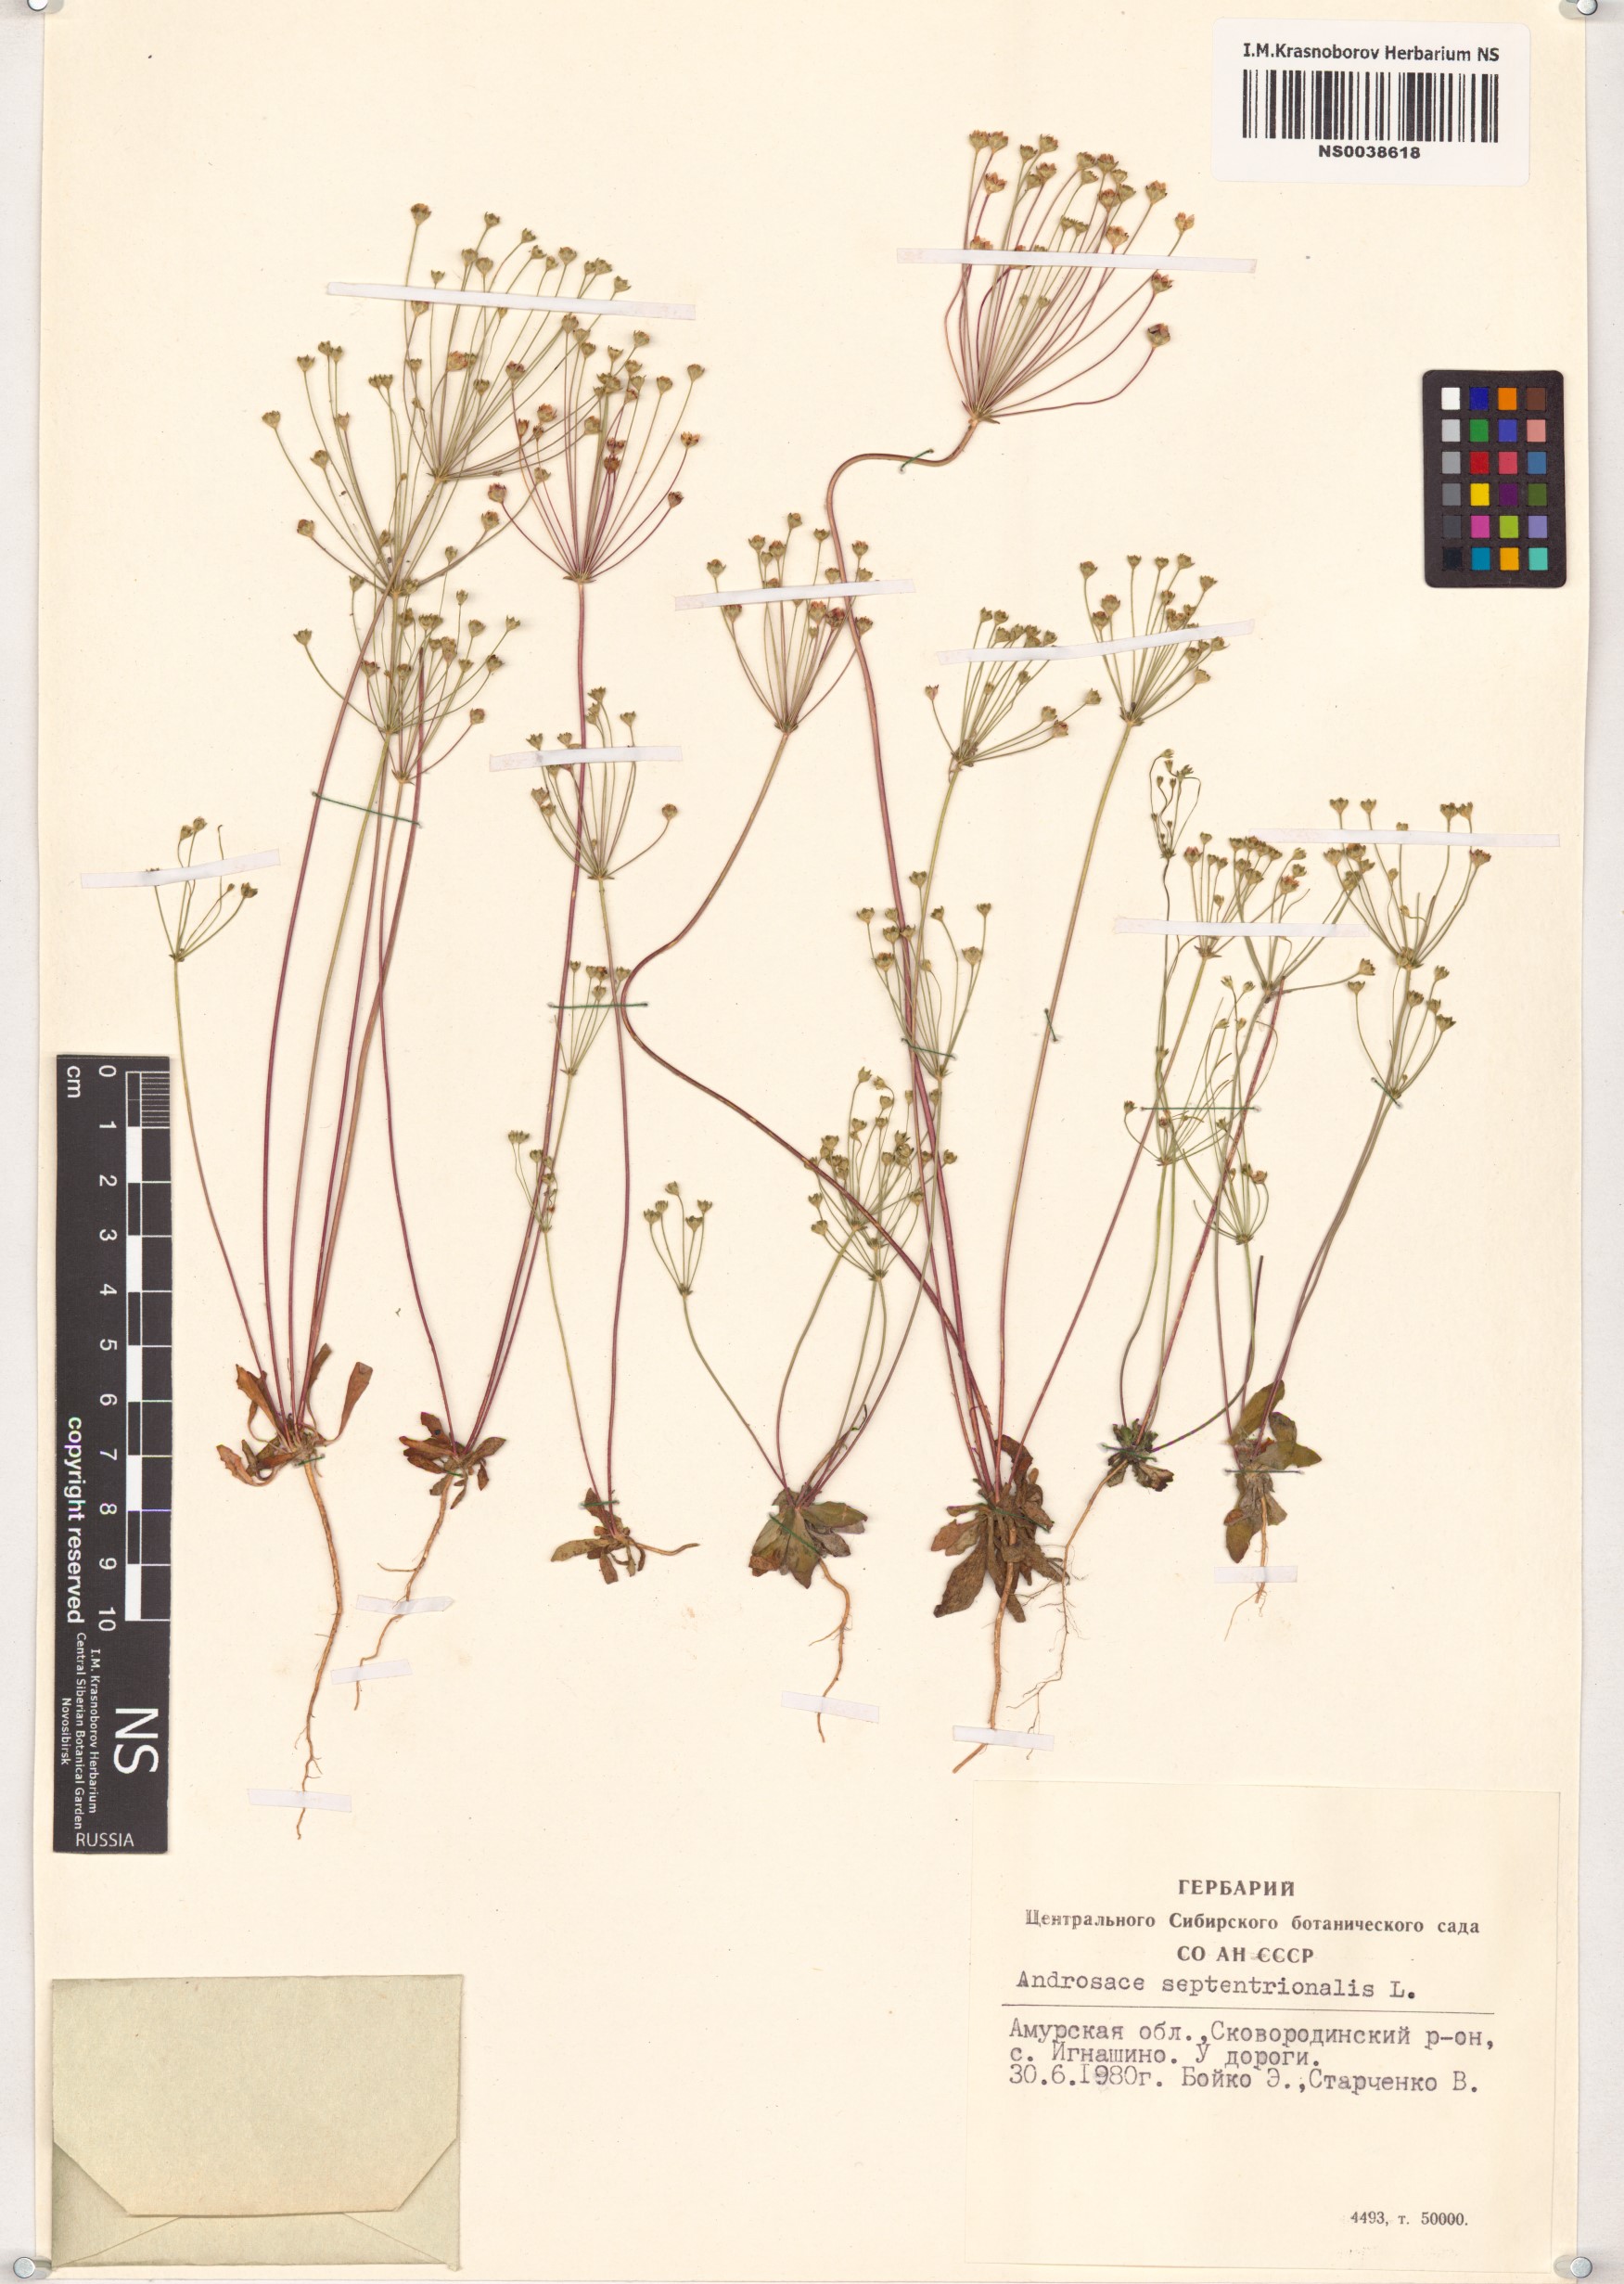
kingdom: Plantae
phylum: Tracheophyta
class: Magnoliopsida
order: Ericales
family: Primulaceae
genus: Androsace
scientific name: Androsace septentrionalis
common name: Hairy northern fairy-candelabra
